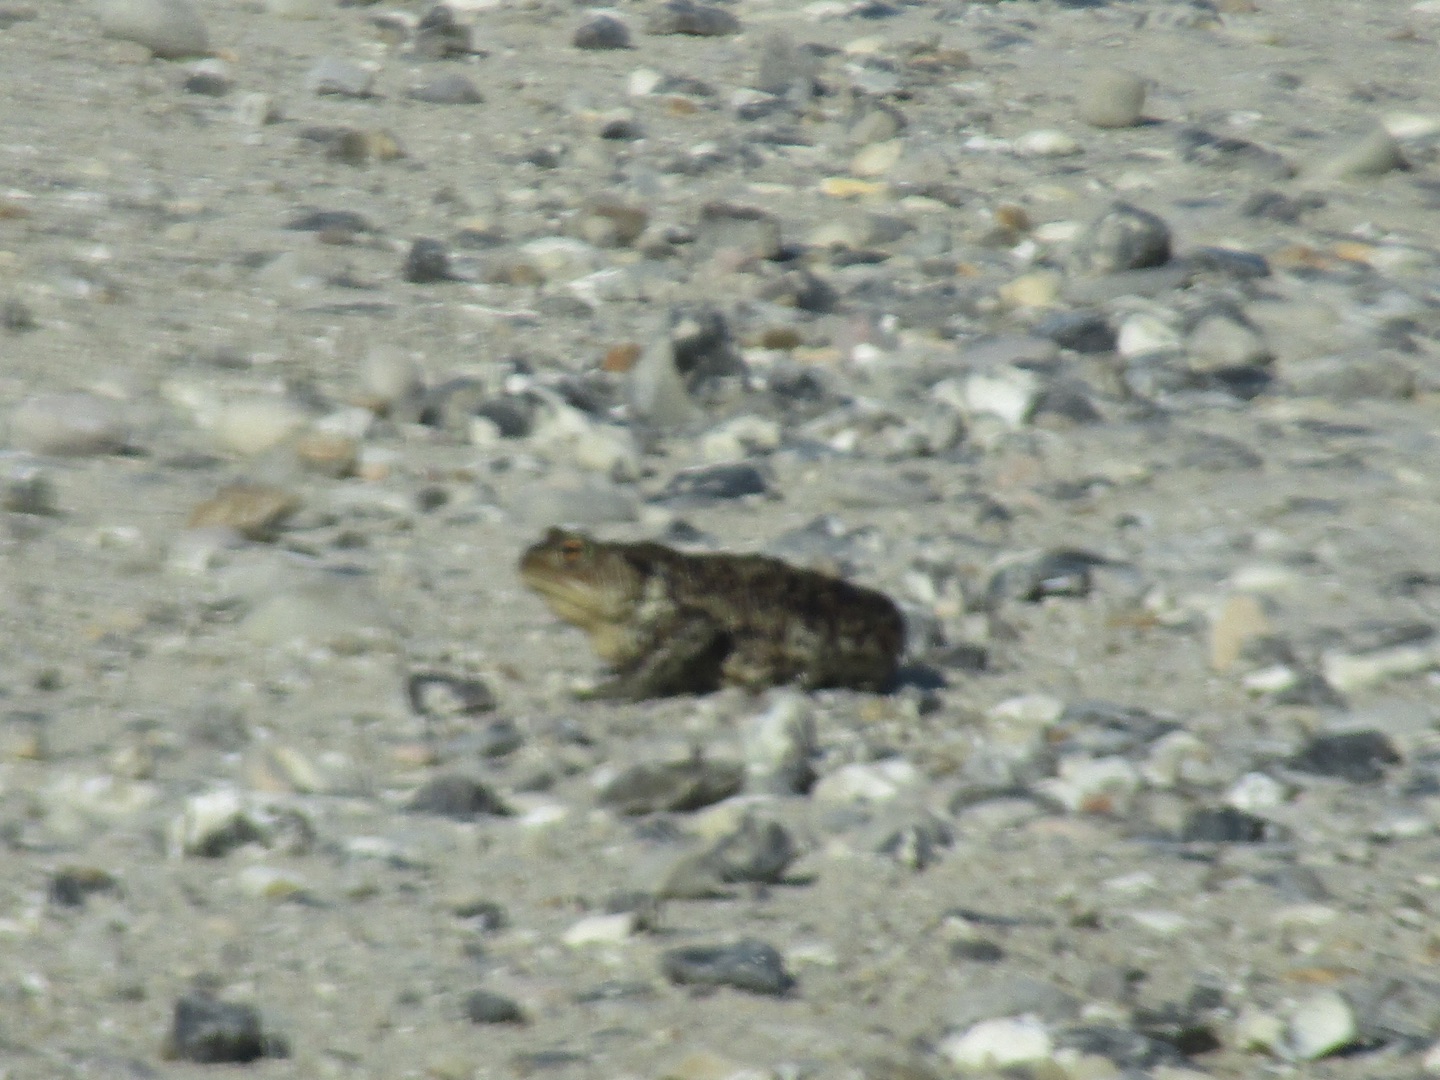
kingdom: Animalia
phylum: Chordata
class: Amphibia
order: Anura
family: Bufonidae
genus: Bufo
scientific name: Bufo bufo
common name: Skrubtudse
